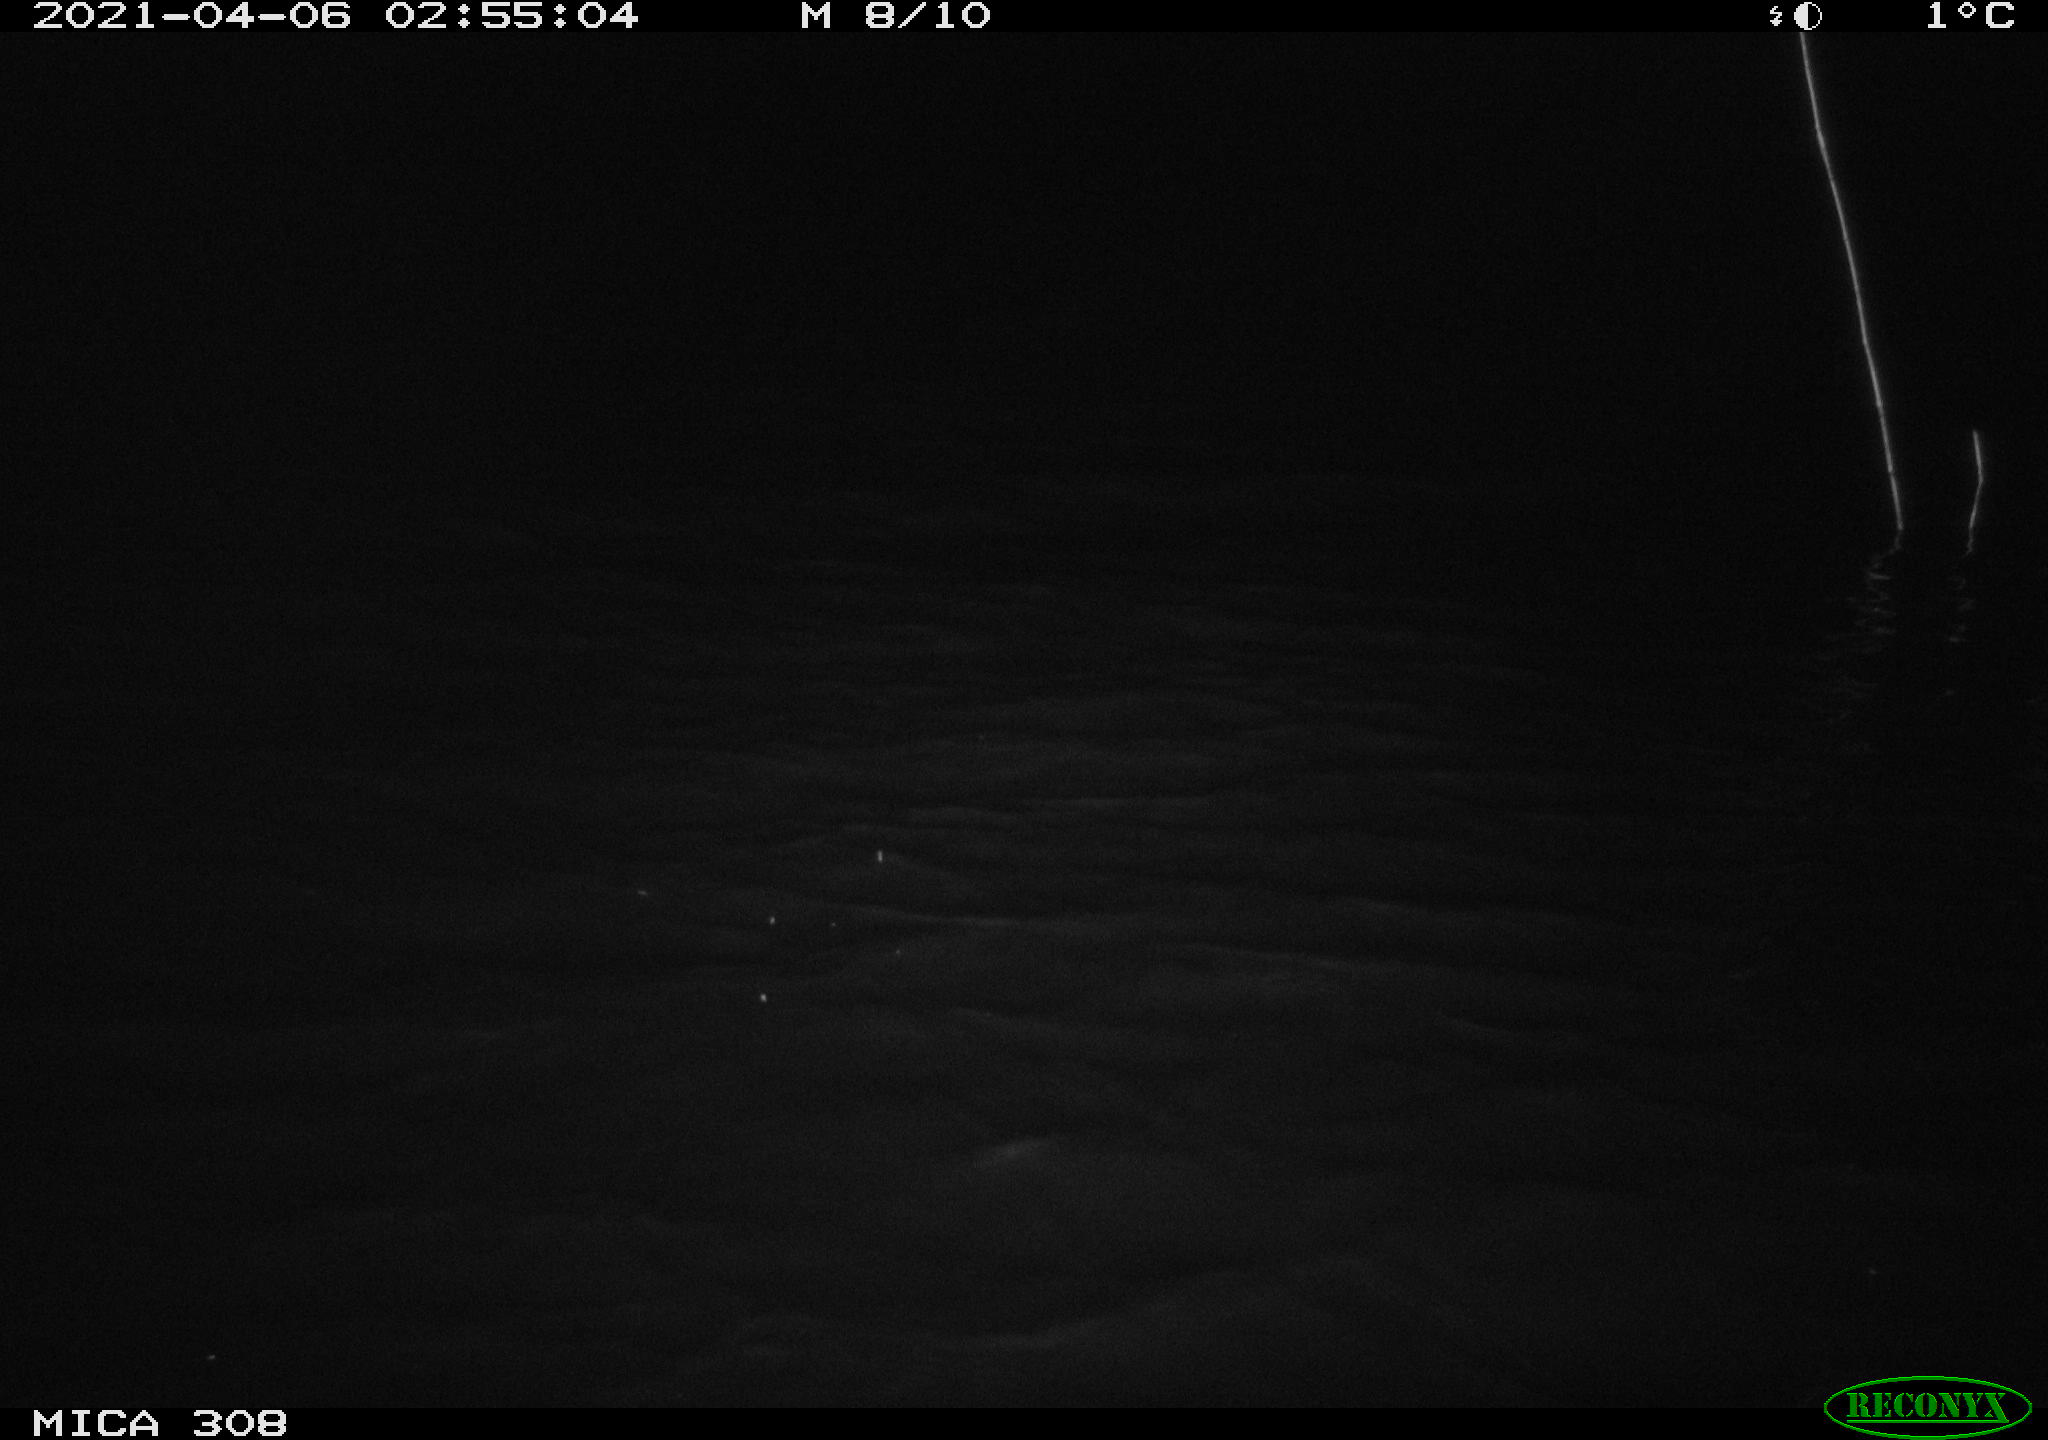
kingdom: Animalia
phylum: Chordata
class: Mammalia
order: Rodentia
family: Cricetidae
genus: Ondatra
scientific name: Ondatra zibethicus
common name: Muskrat
